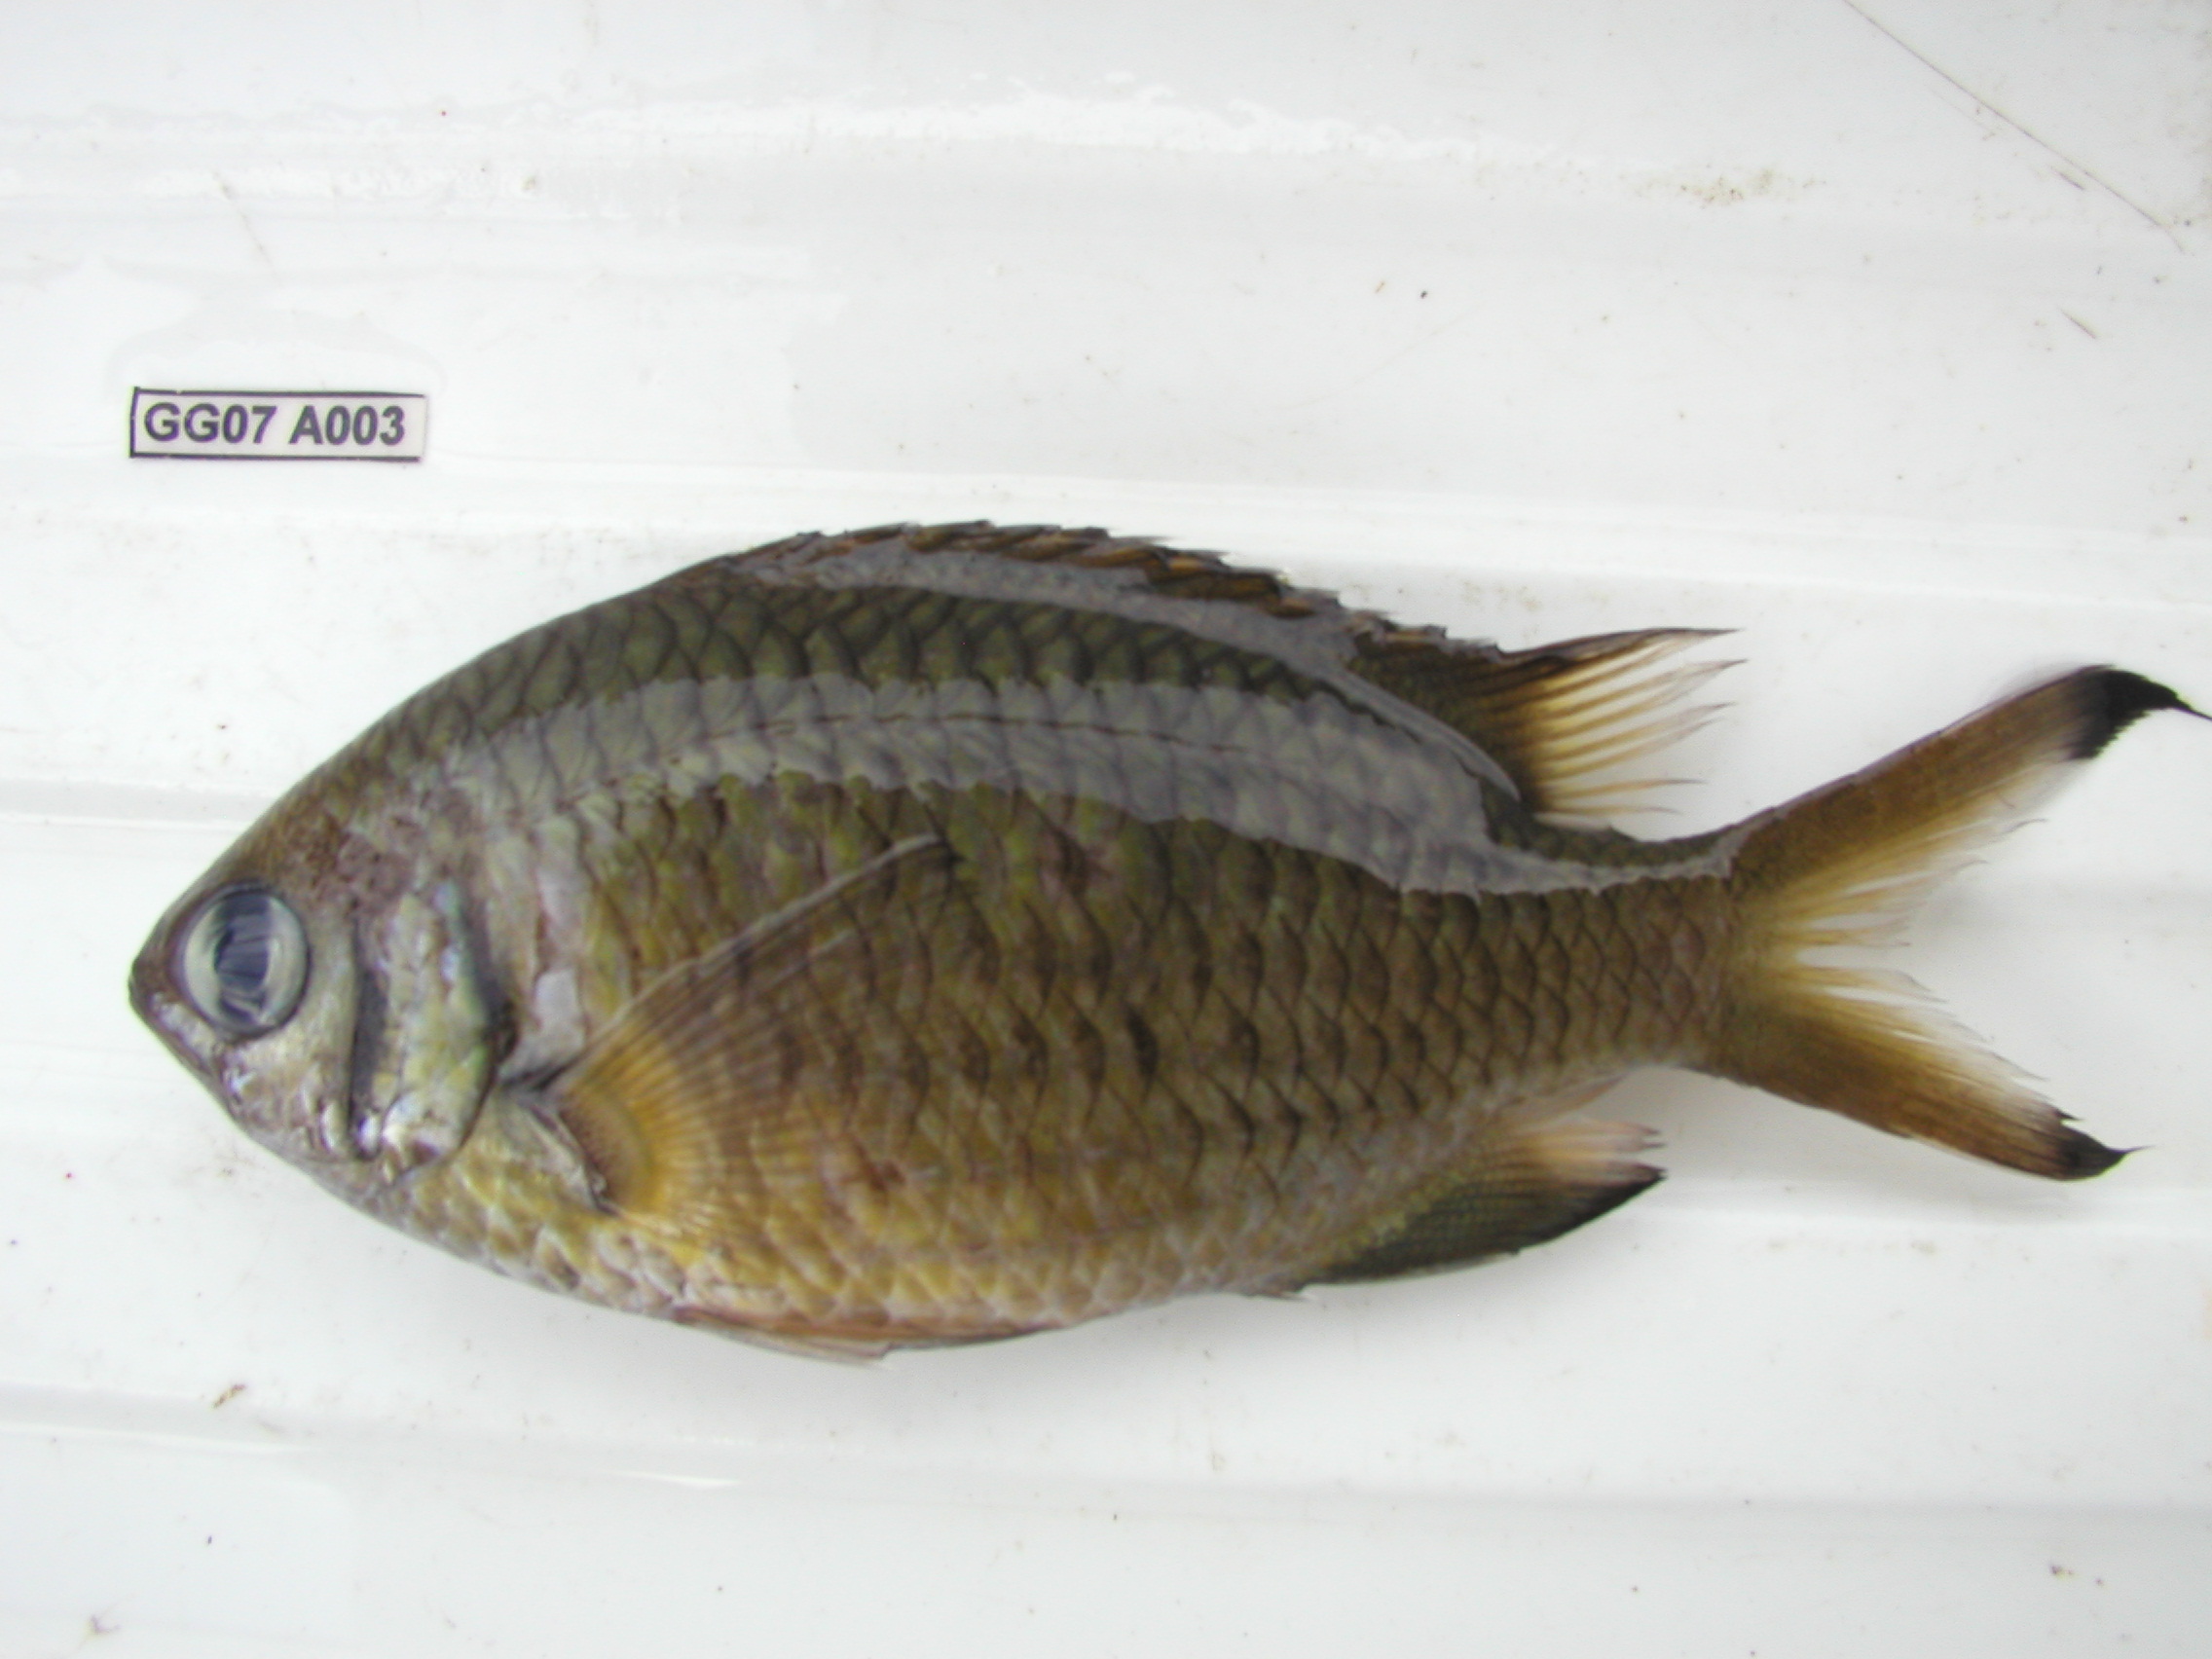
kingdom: Animalia
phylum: Chordata
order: Perciformes
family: Pomacentridae
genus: Chromis
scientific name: Chromis weberi
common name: Weber's chromis
